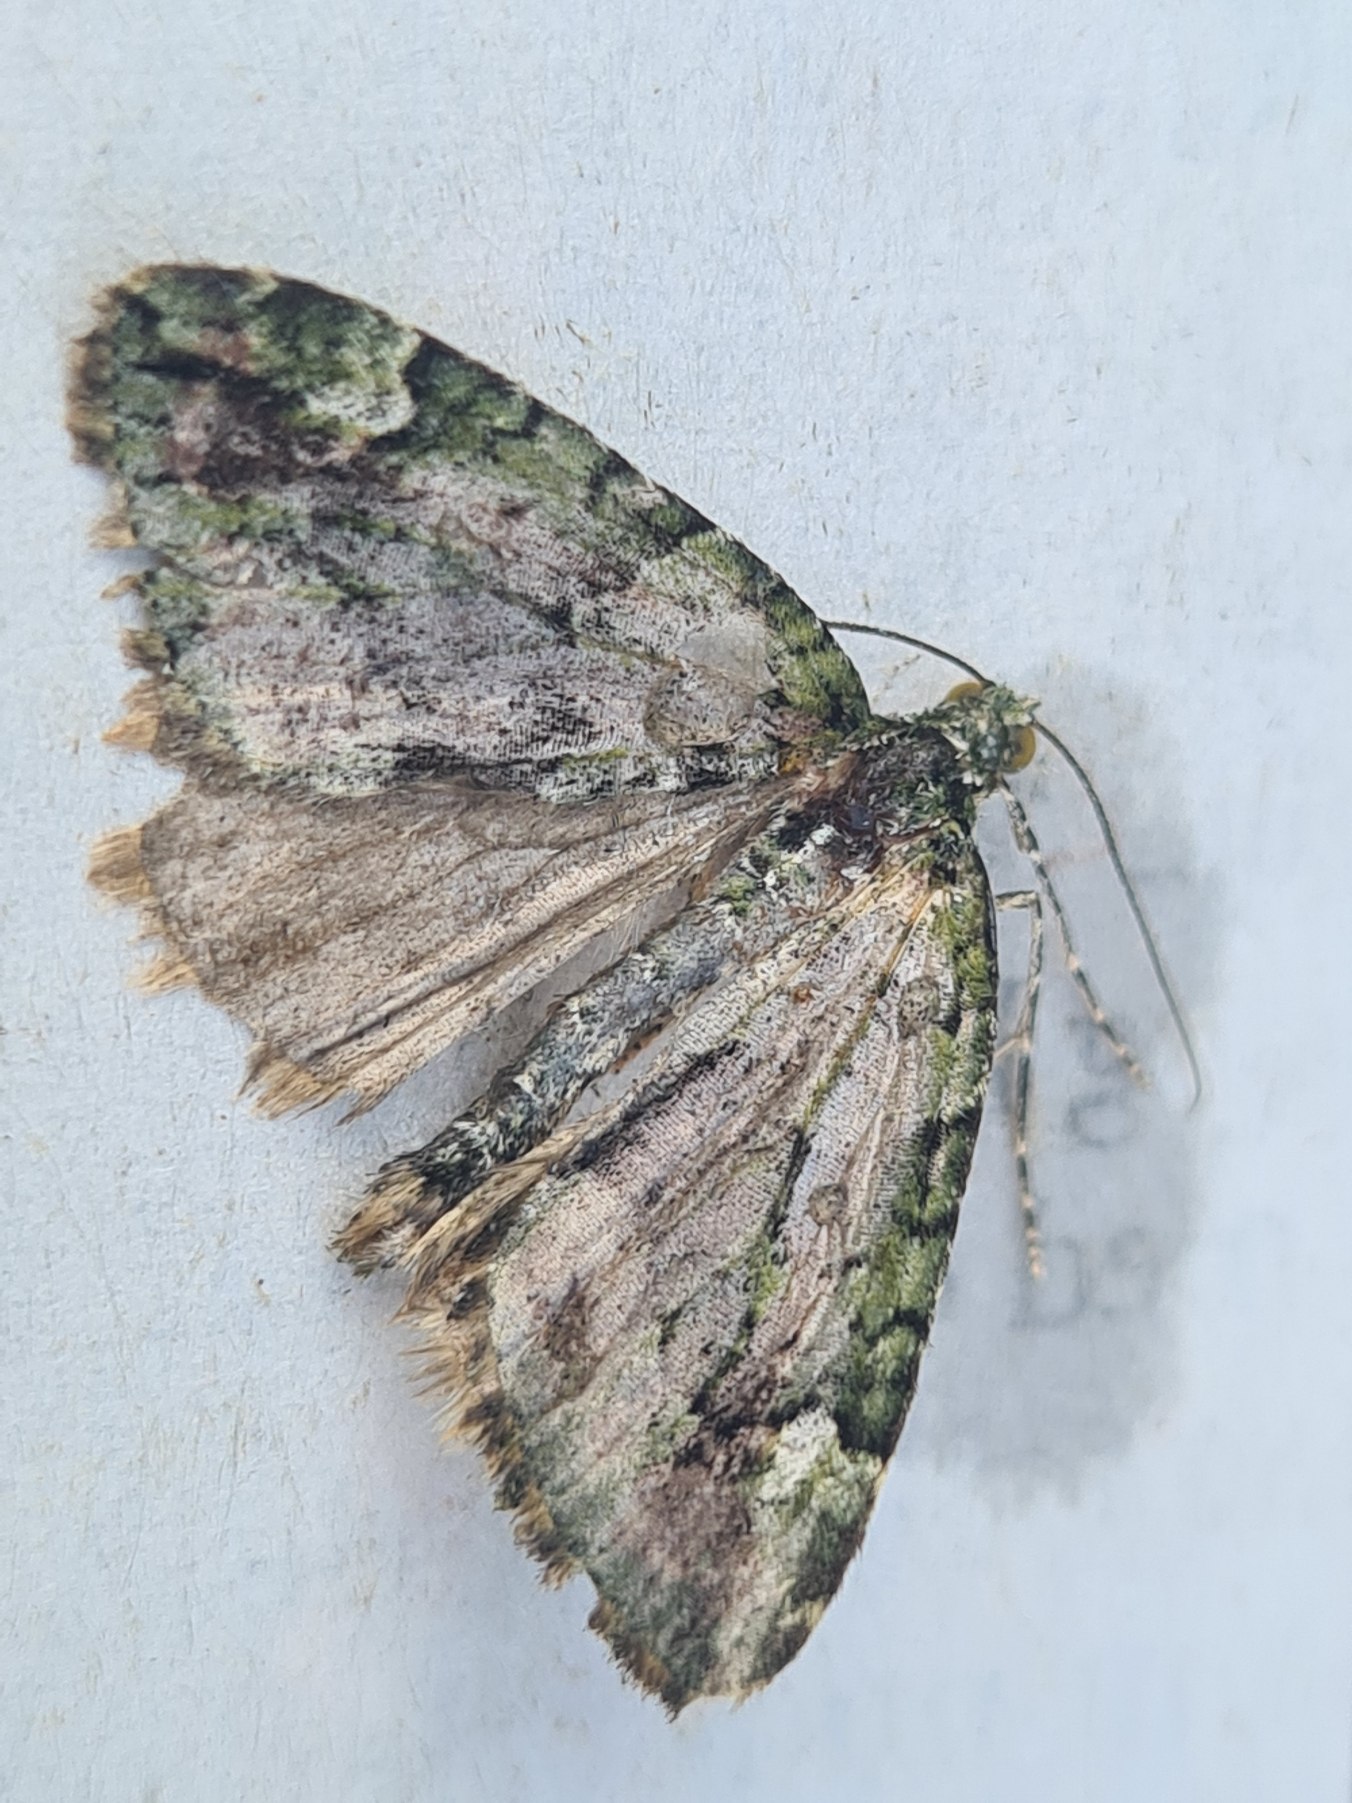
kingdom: Animalia
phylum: Arthropoda
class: Insecta
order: Lepidoptera
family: Geometridae
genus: Chloroclysta
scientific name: Chloroclysta siterata
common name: Brungrøn bladmåler
